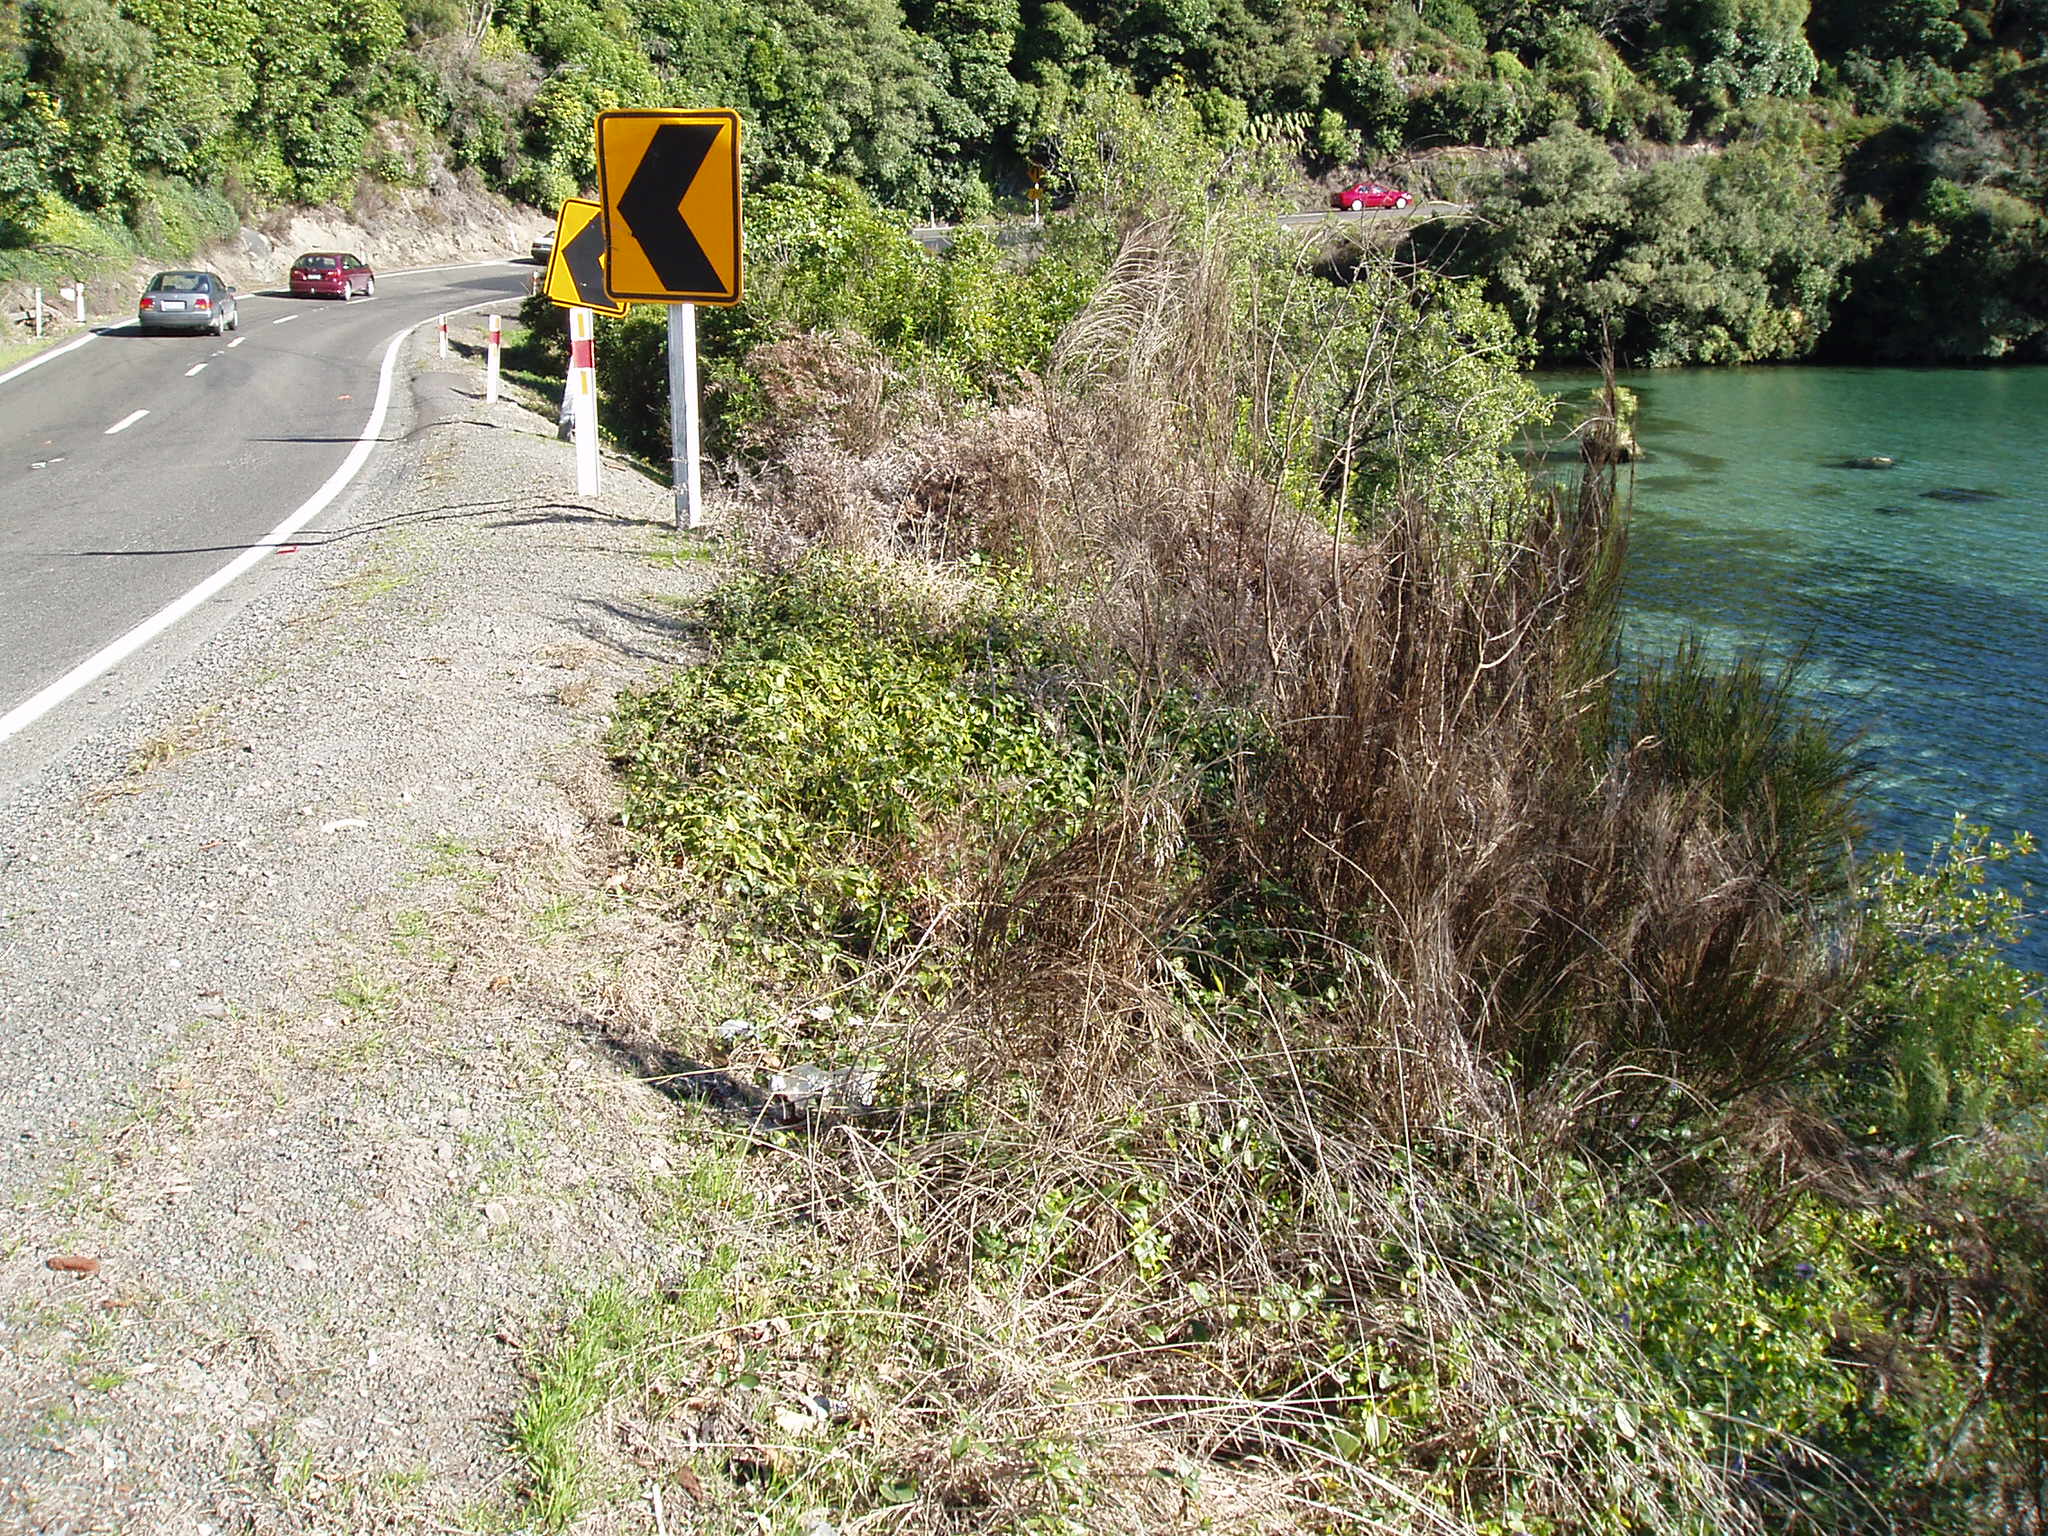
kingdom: Plantae
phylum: Tracheophyta
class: Magnoliopsida
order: Gentianales
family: Apocynaceae
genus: Vinca
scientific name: Vinca major
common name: Greater periwinkle
